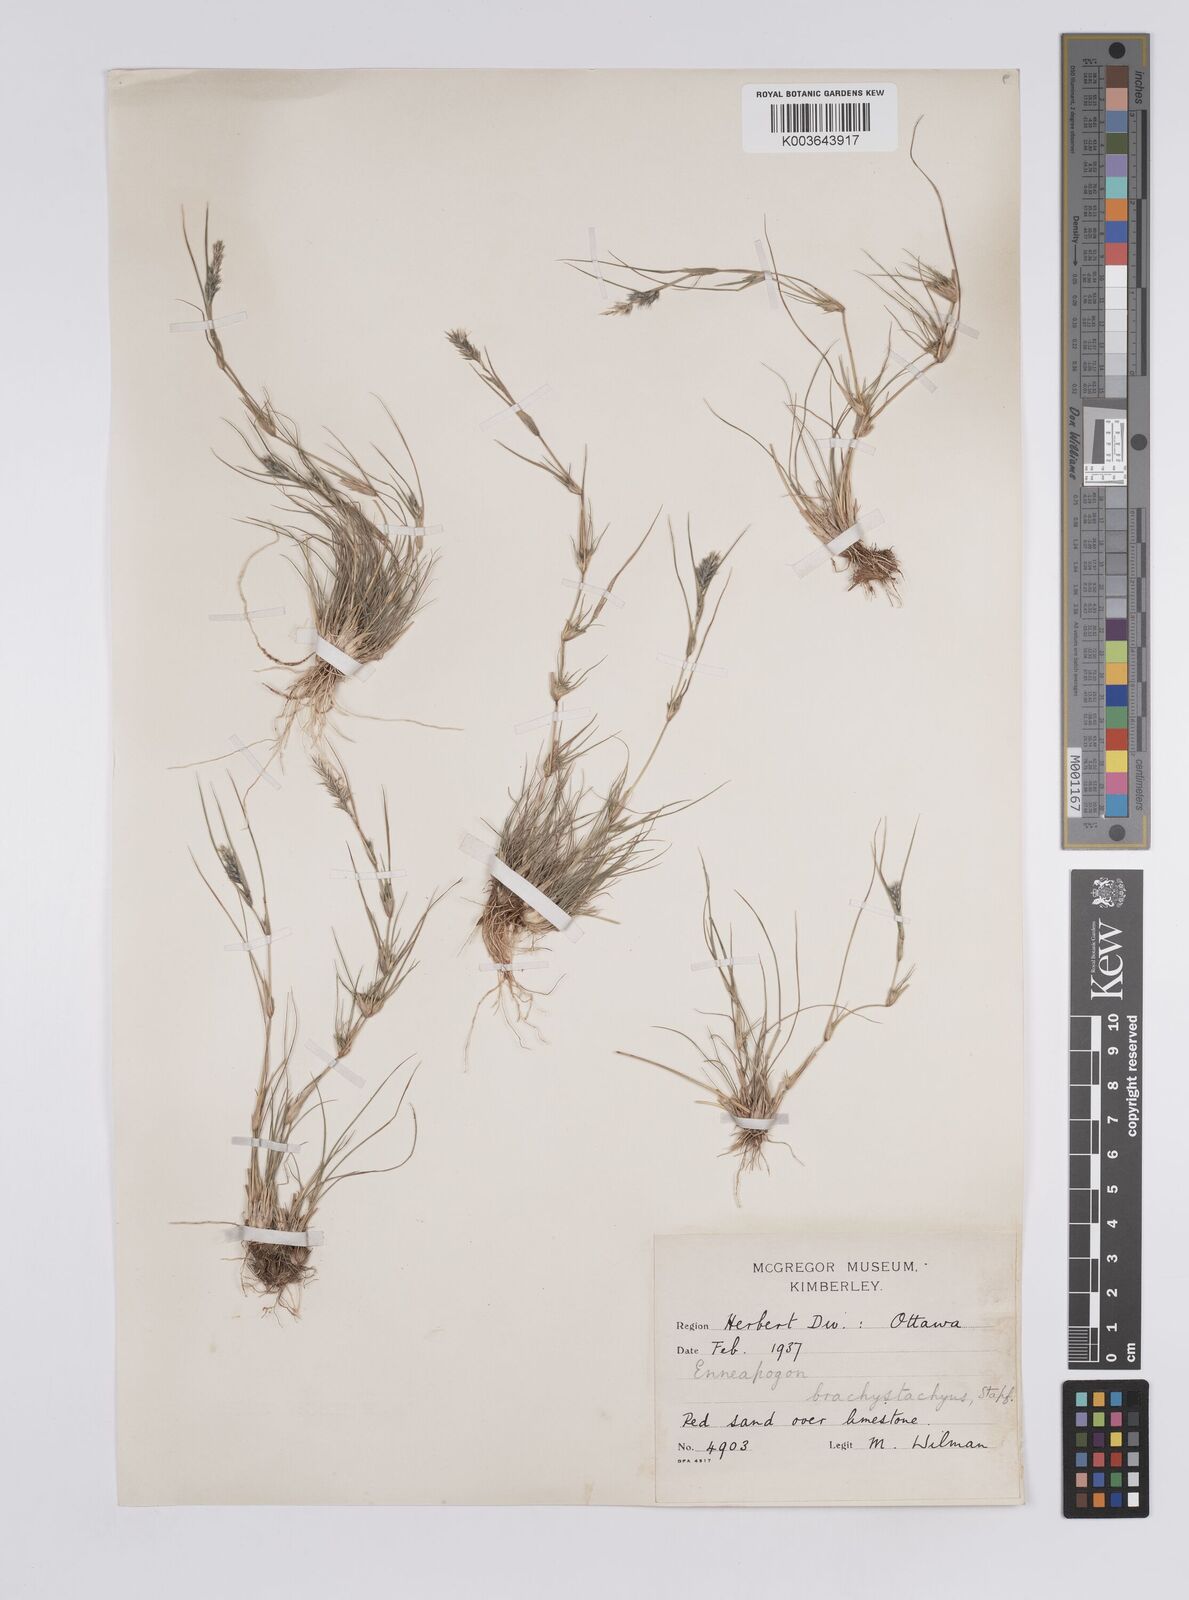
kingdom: Plantae
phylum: Tracheophyta
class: Liliopsida
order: Poales
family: Poaceae
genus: Enneapogon
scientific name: Enneapogon desvauxii
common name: Feather pappus grass
